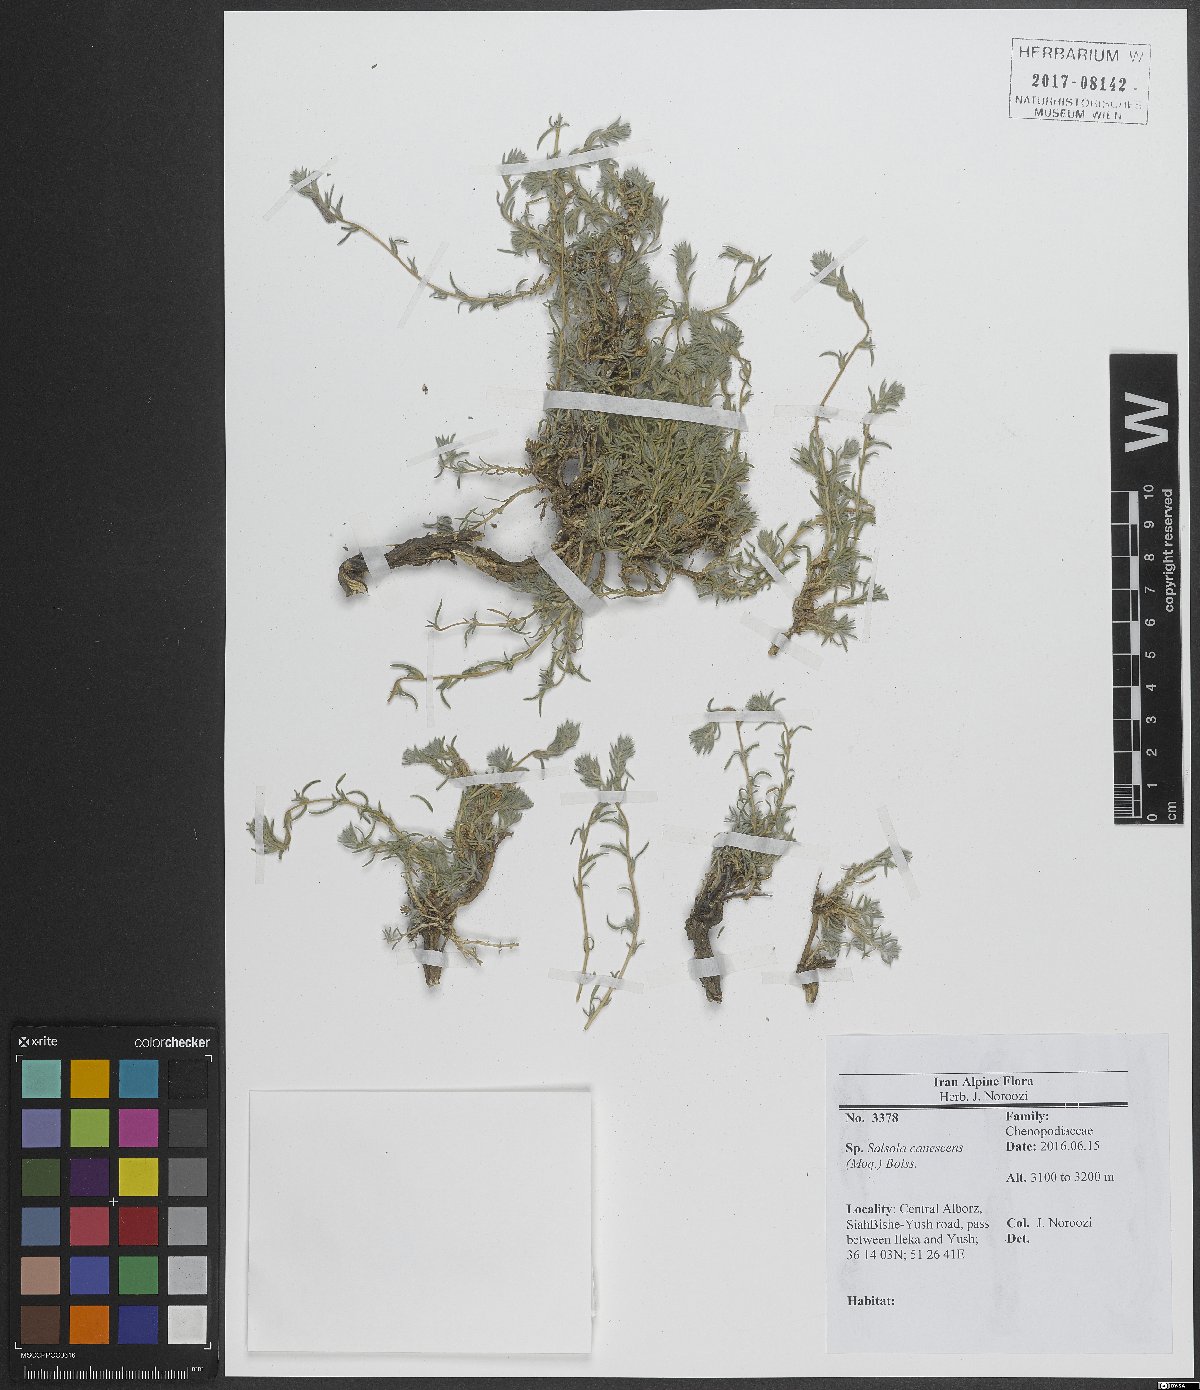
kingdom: Plantae
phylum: Tracheophyta
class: Magnoliopsida
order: Caryophyllales
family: Amaranthaceae
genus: Akhania
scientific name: Akhania canescens
